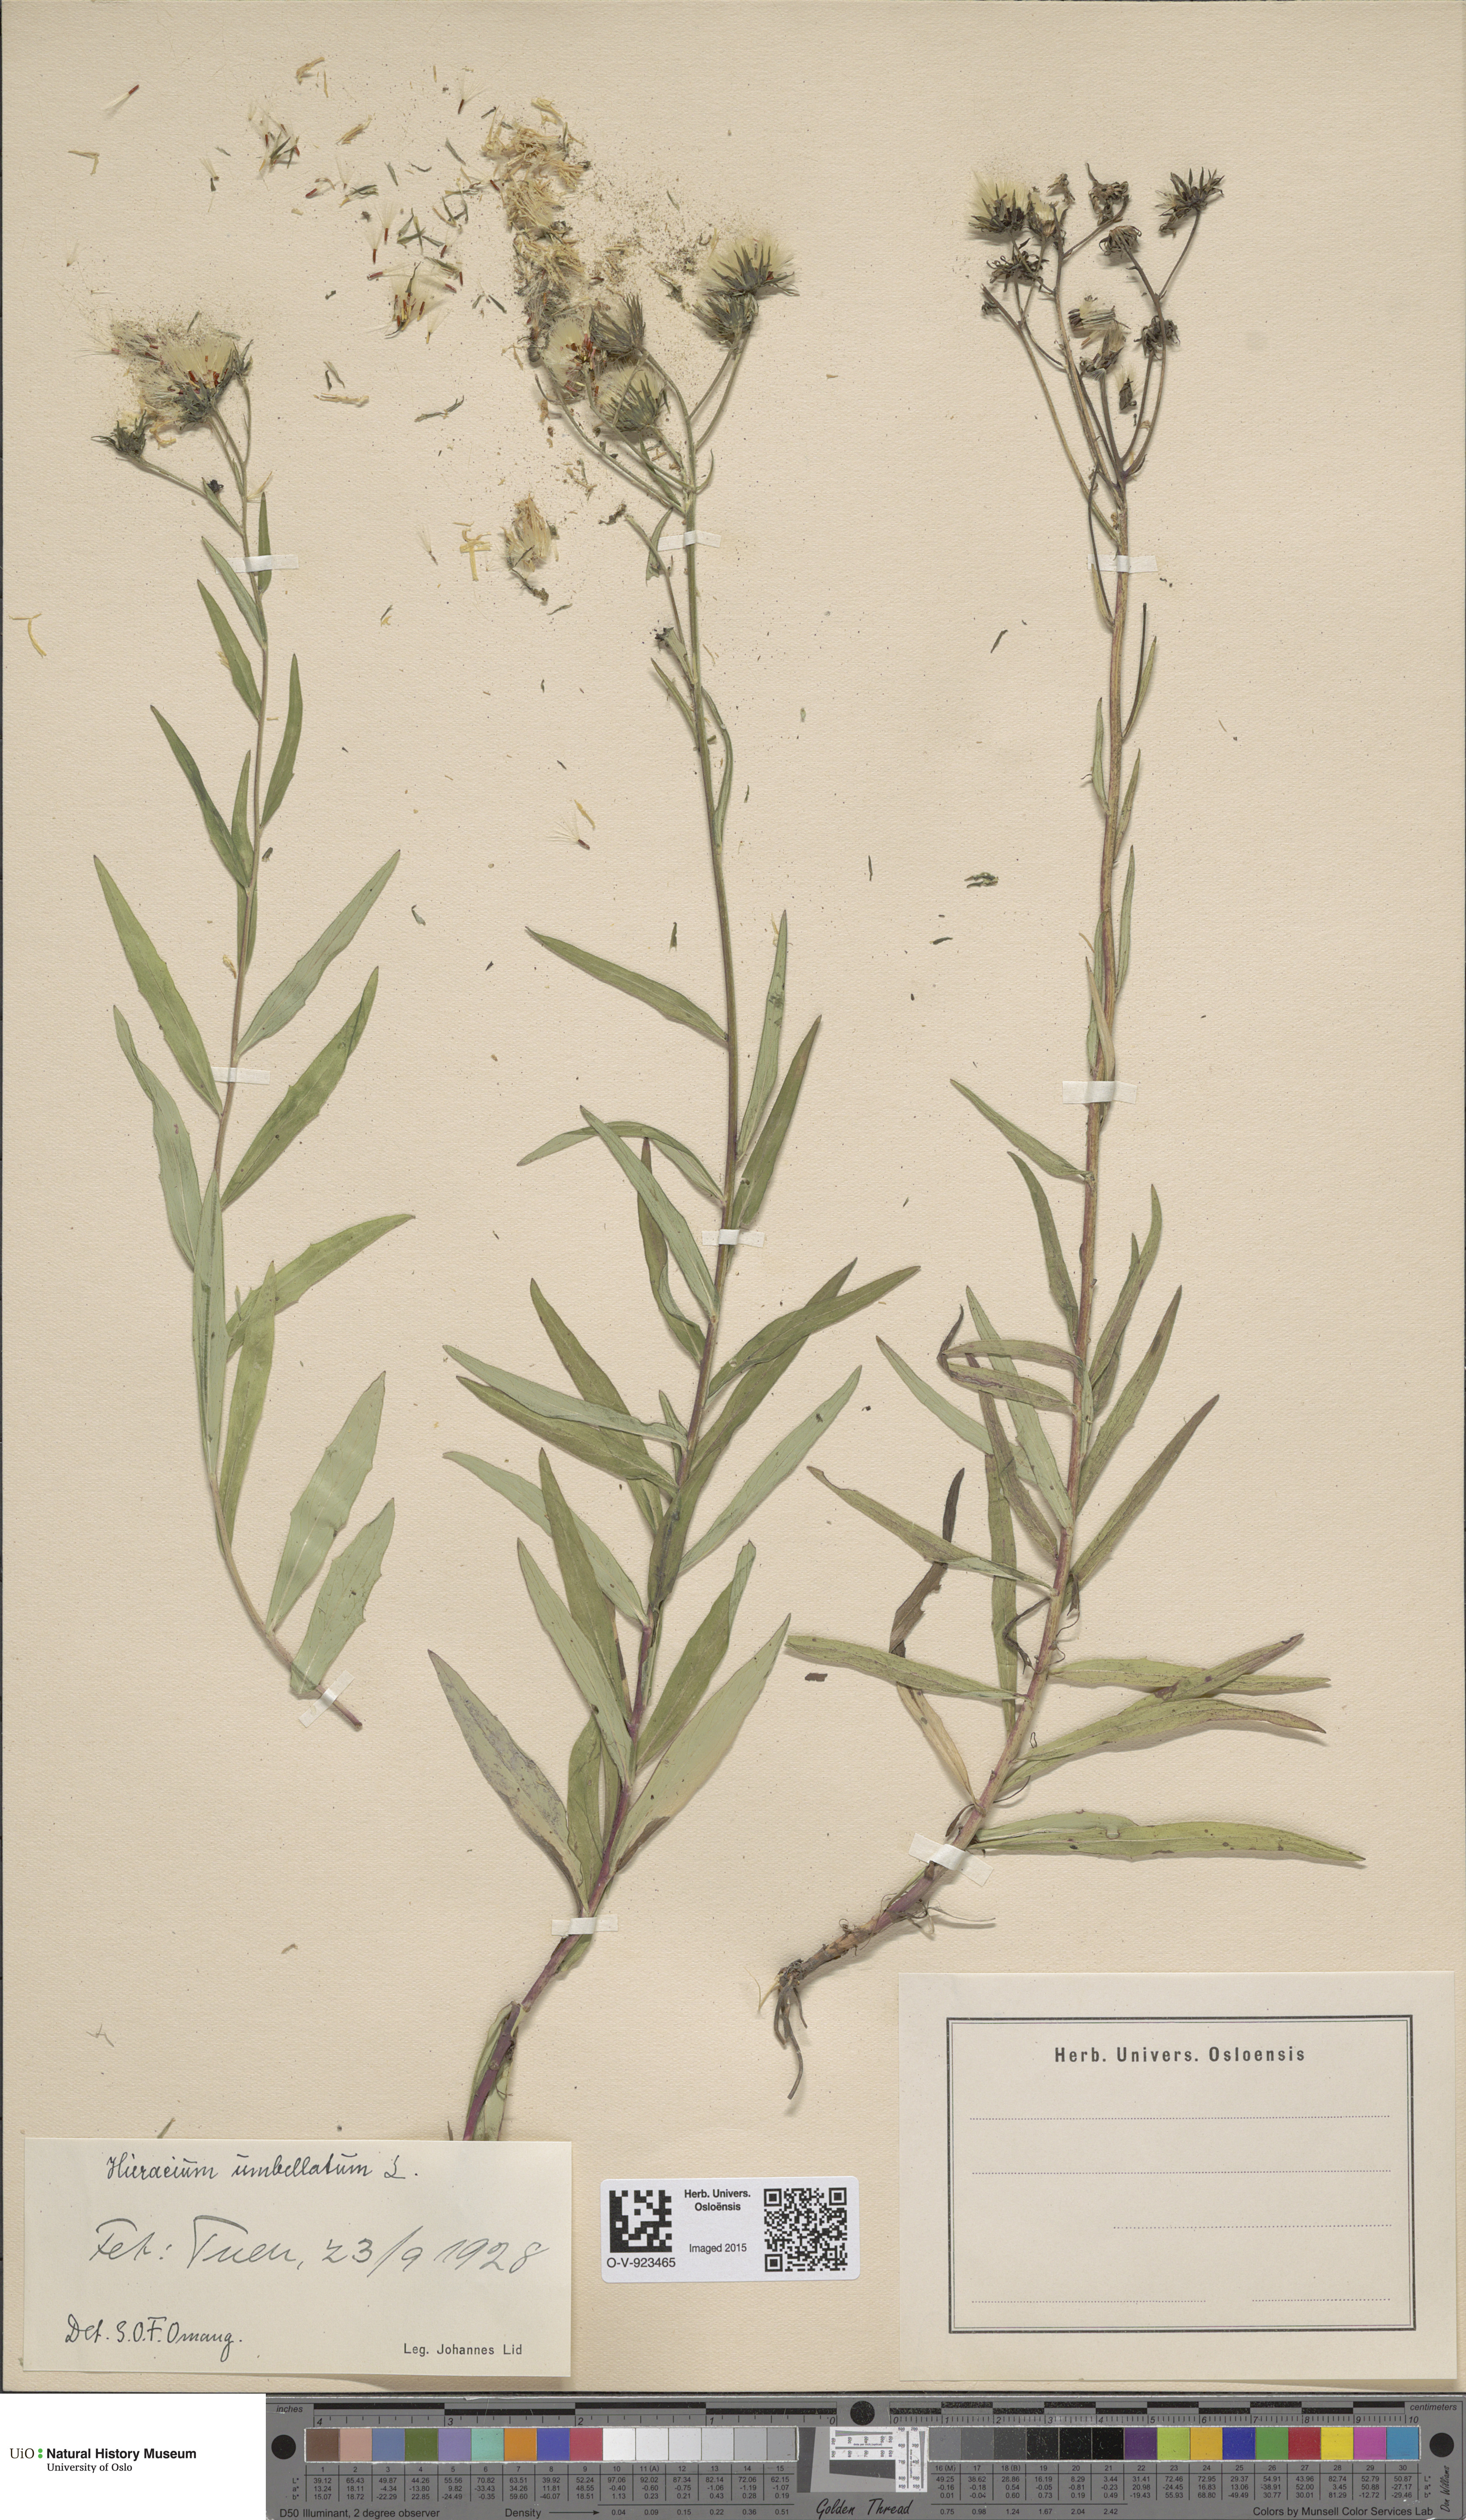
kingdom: Plantae
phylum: Tracheophyta
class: Magnoliopsida
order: Asterales
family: Asteraceae
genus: Hieracium
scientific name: Hieracium umbellatum
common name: Northern hawkweed
